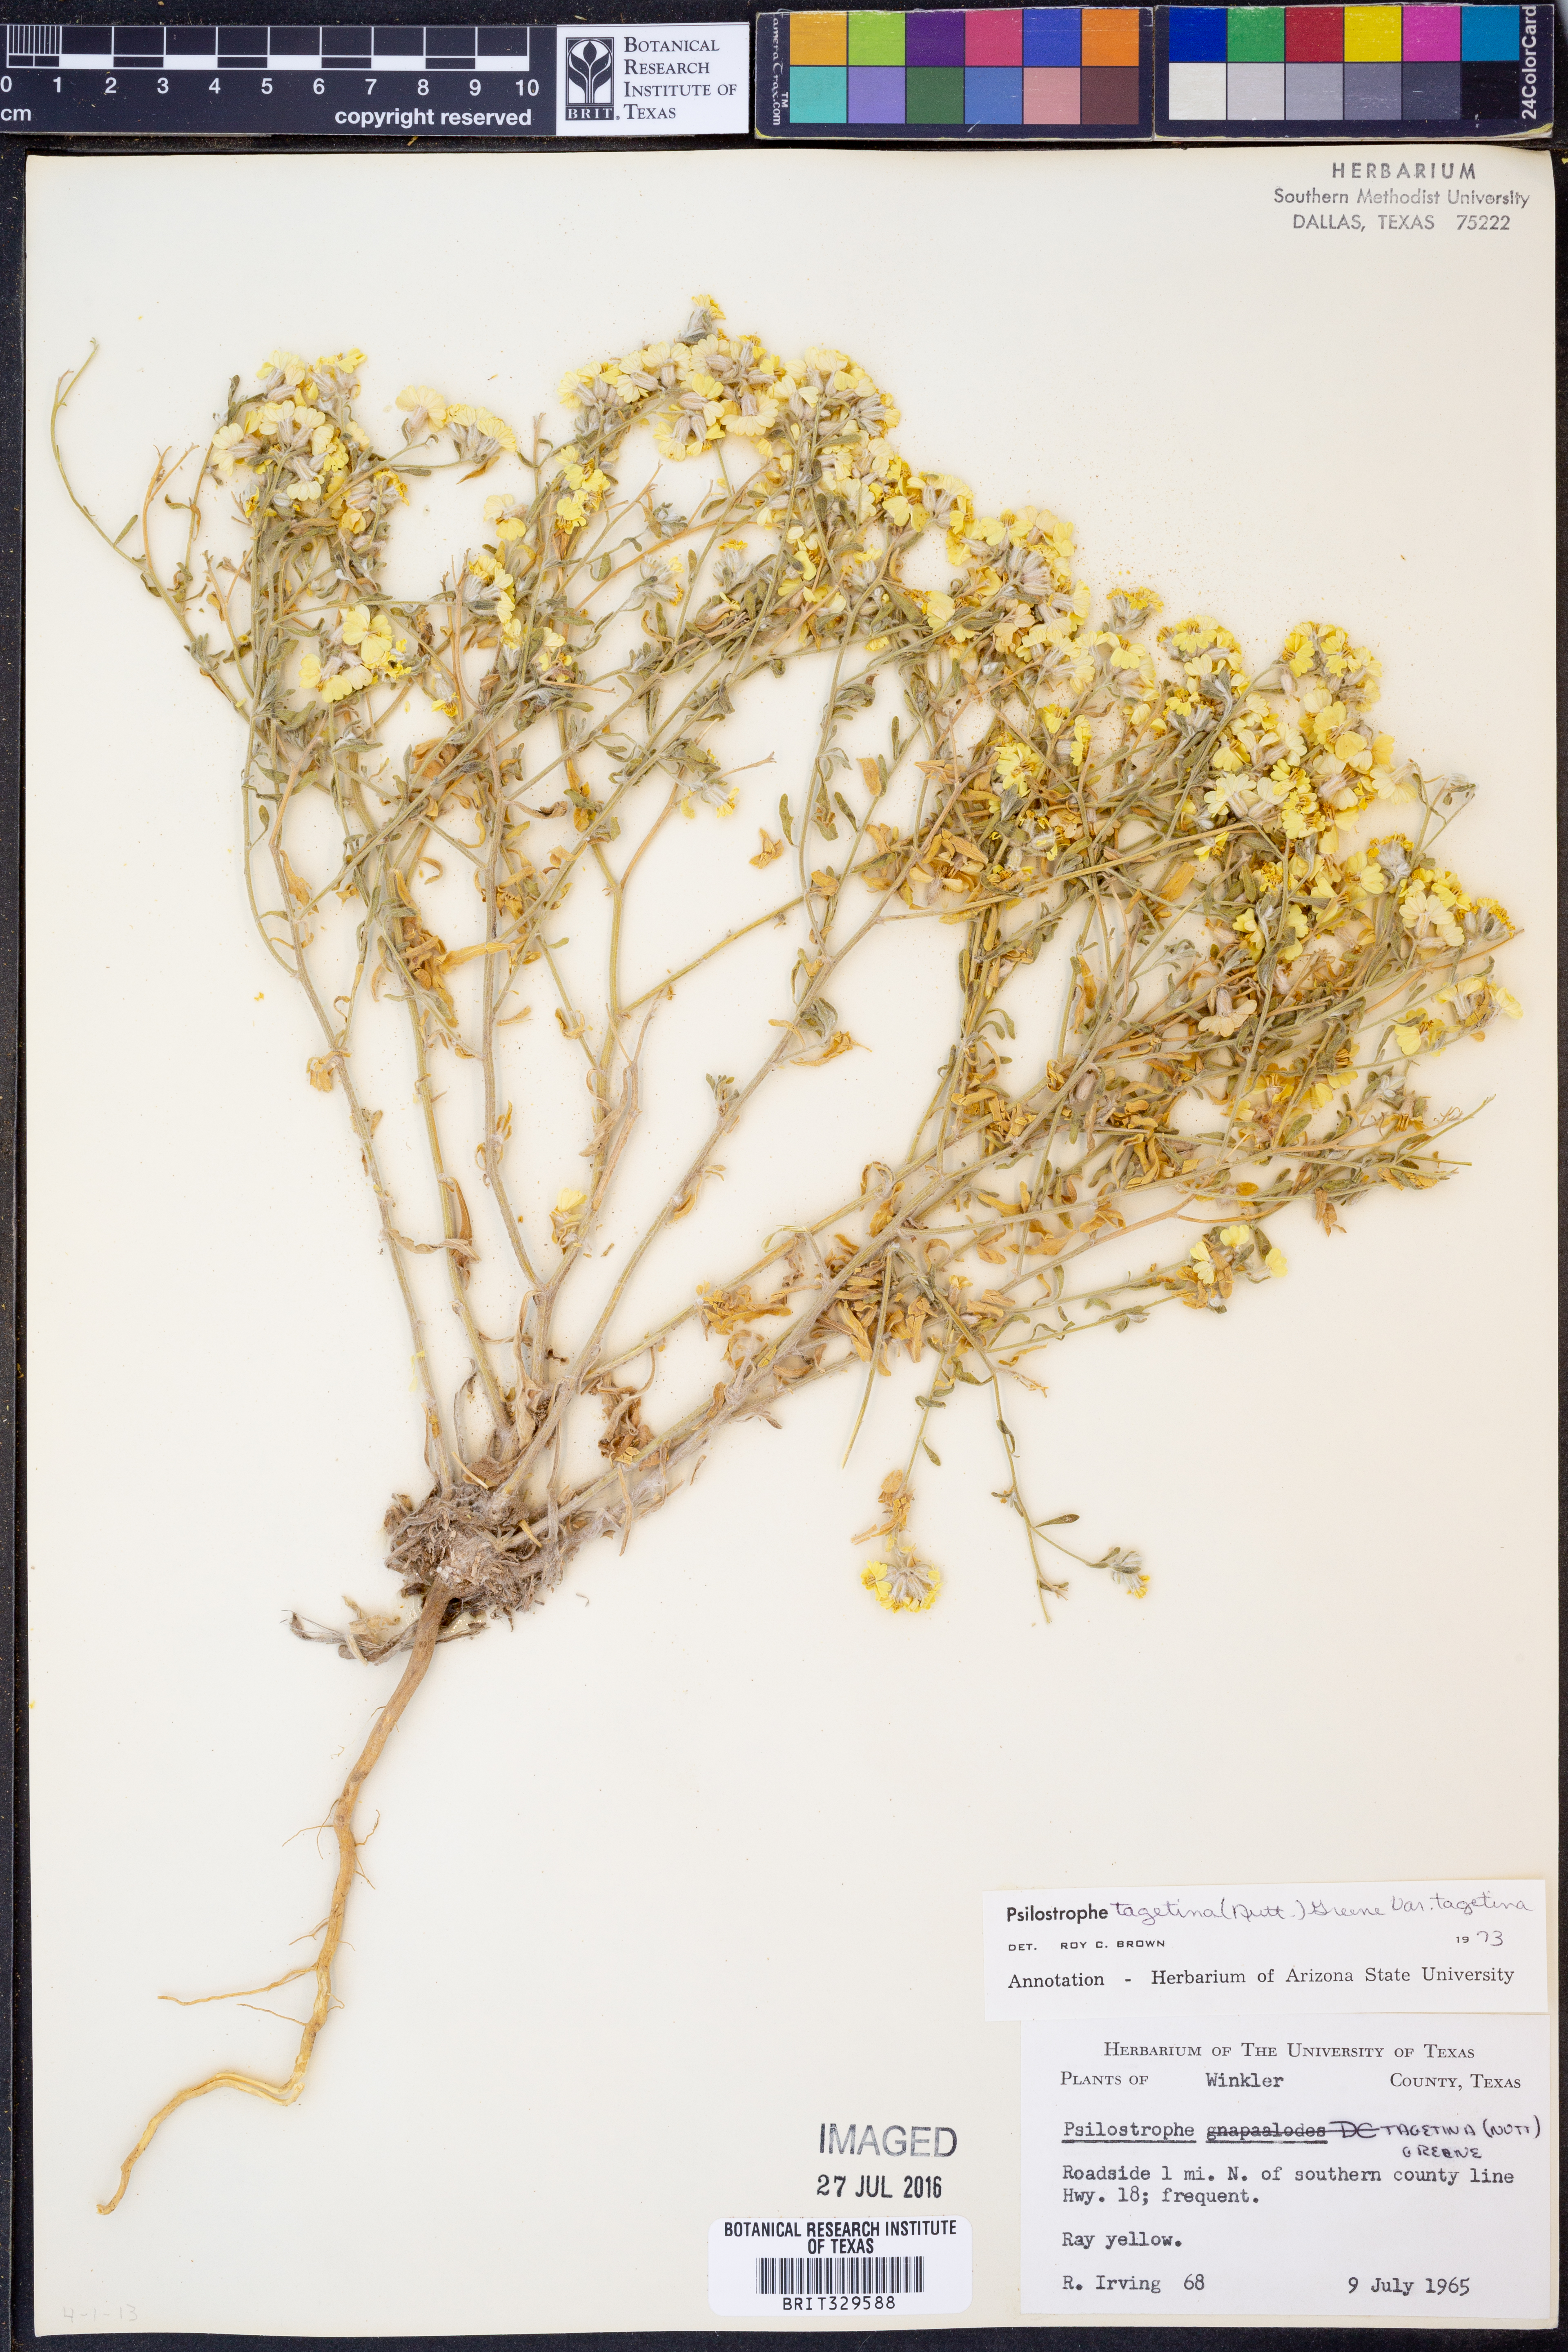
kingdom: Plantae
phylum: Tracheophyta
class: Magnoliopsida
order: Asterales
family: Asteraceae
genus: Psilostrophe
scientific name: Psilostrophe tagetina
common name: Marigold paper-flower
